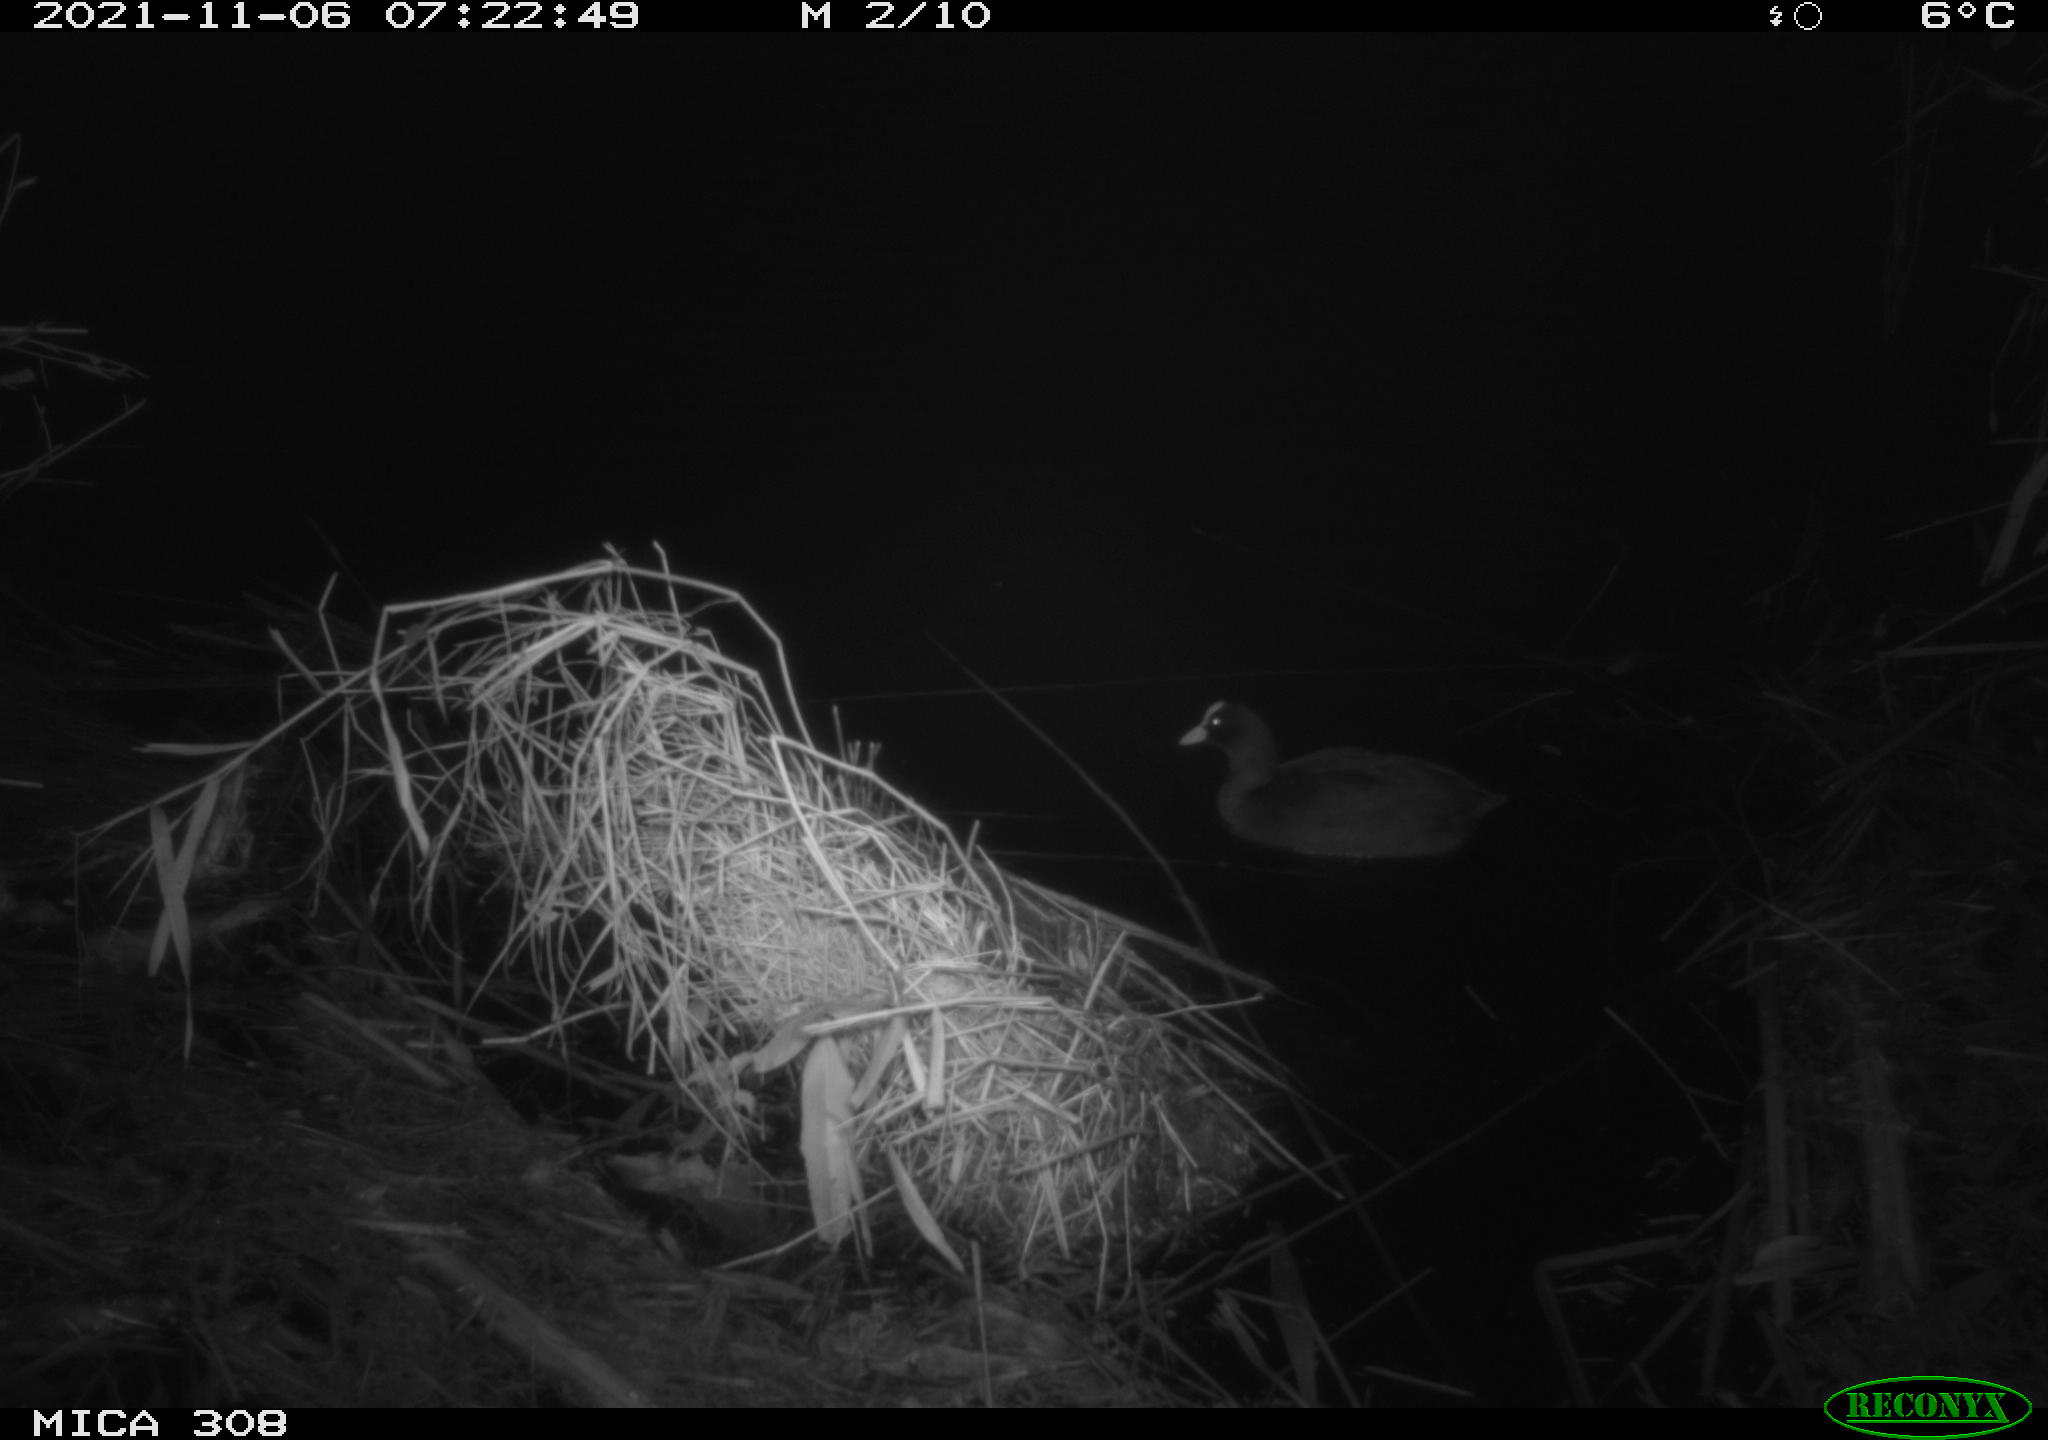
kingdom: Animalia
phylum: Chordata
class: Aves
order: Gruiformes
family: Rallidae
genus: Fulica
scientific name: Fulica atra
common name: Eurasian coot
